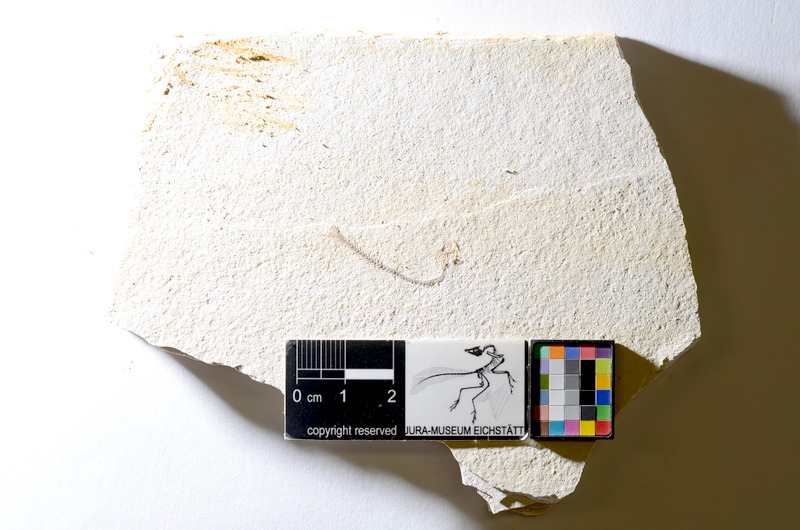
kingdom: Animalia
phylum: Chordata
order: Salmoniformes
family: Orthogonikleithridae
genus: Orthogonikleithrus
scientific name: Orthogonikleithrus hoelli
